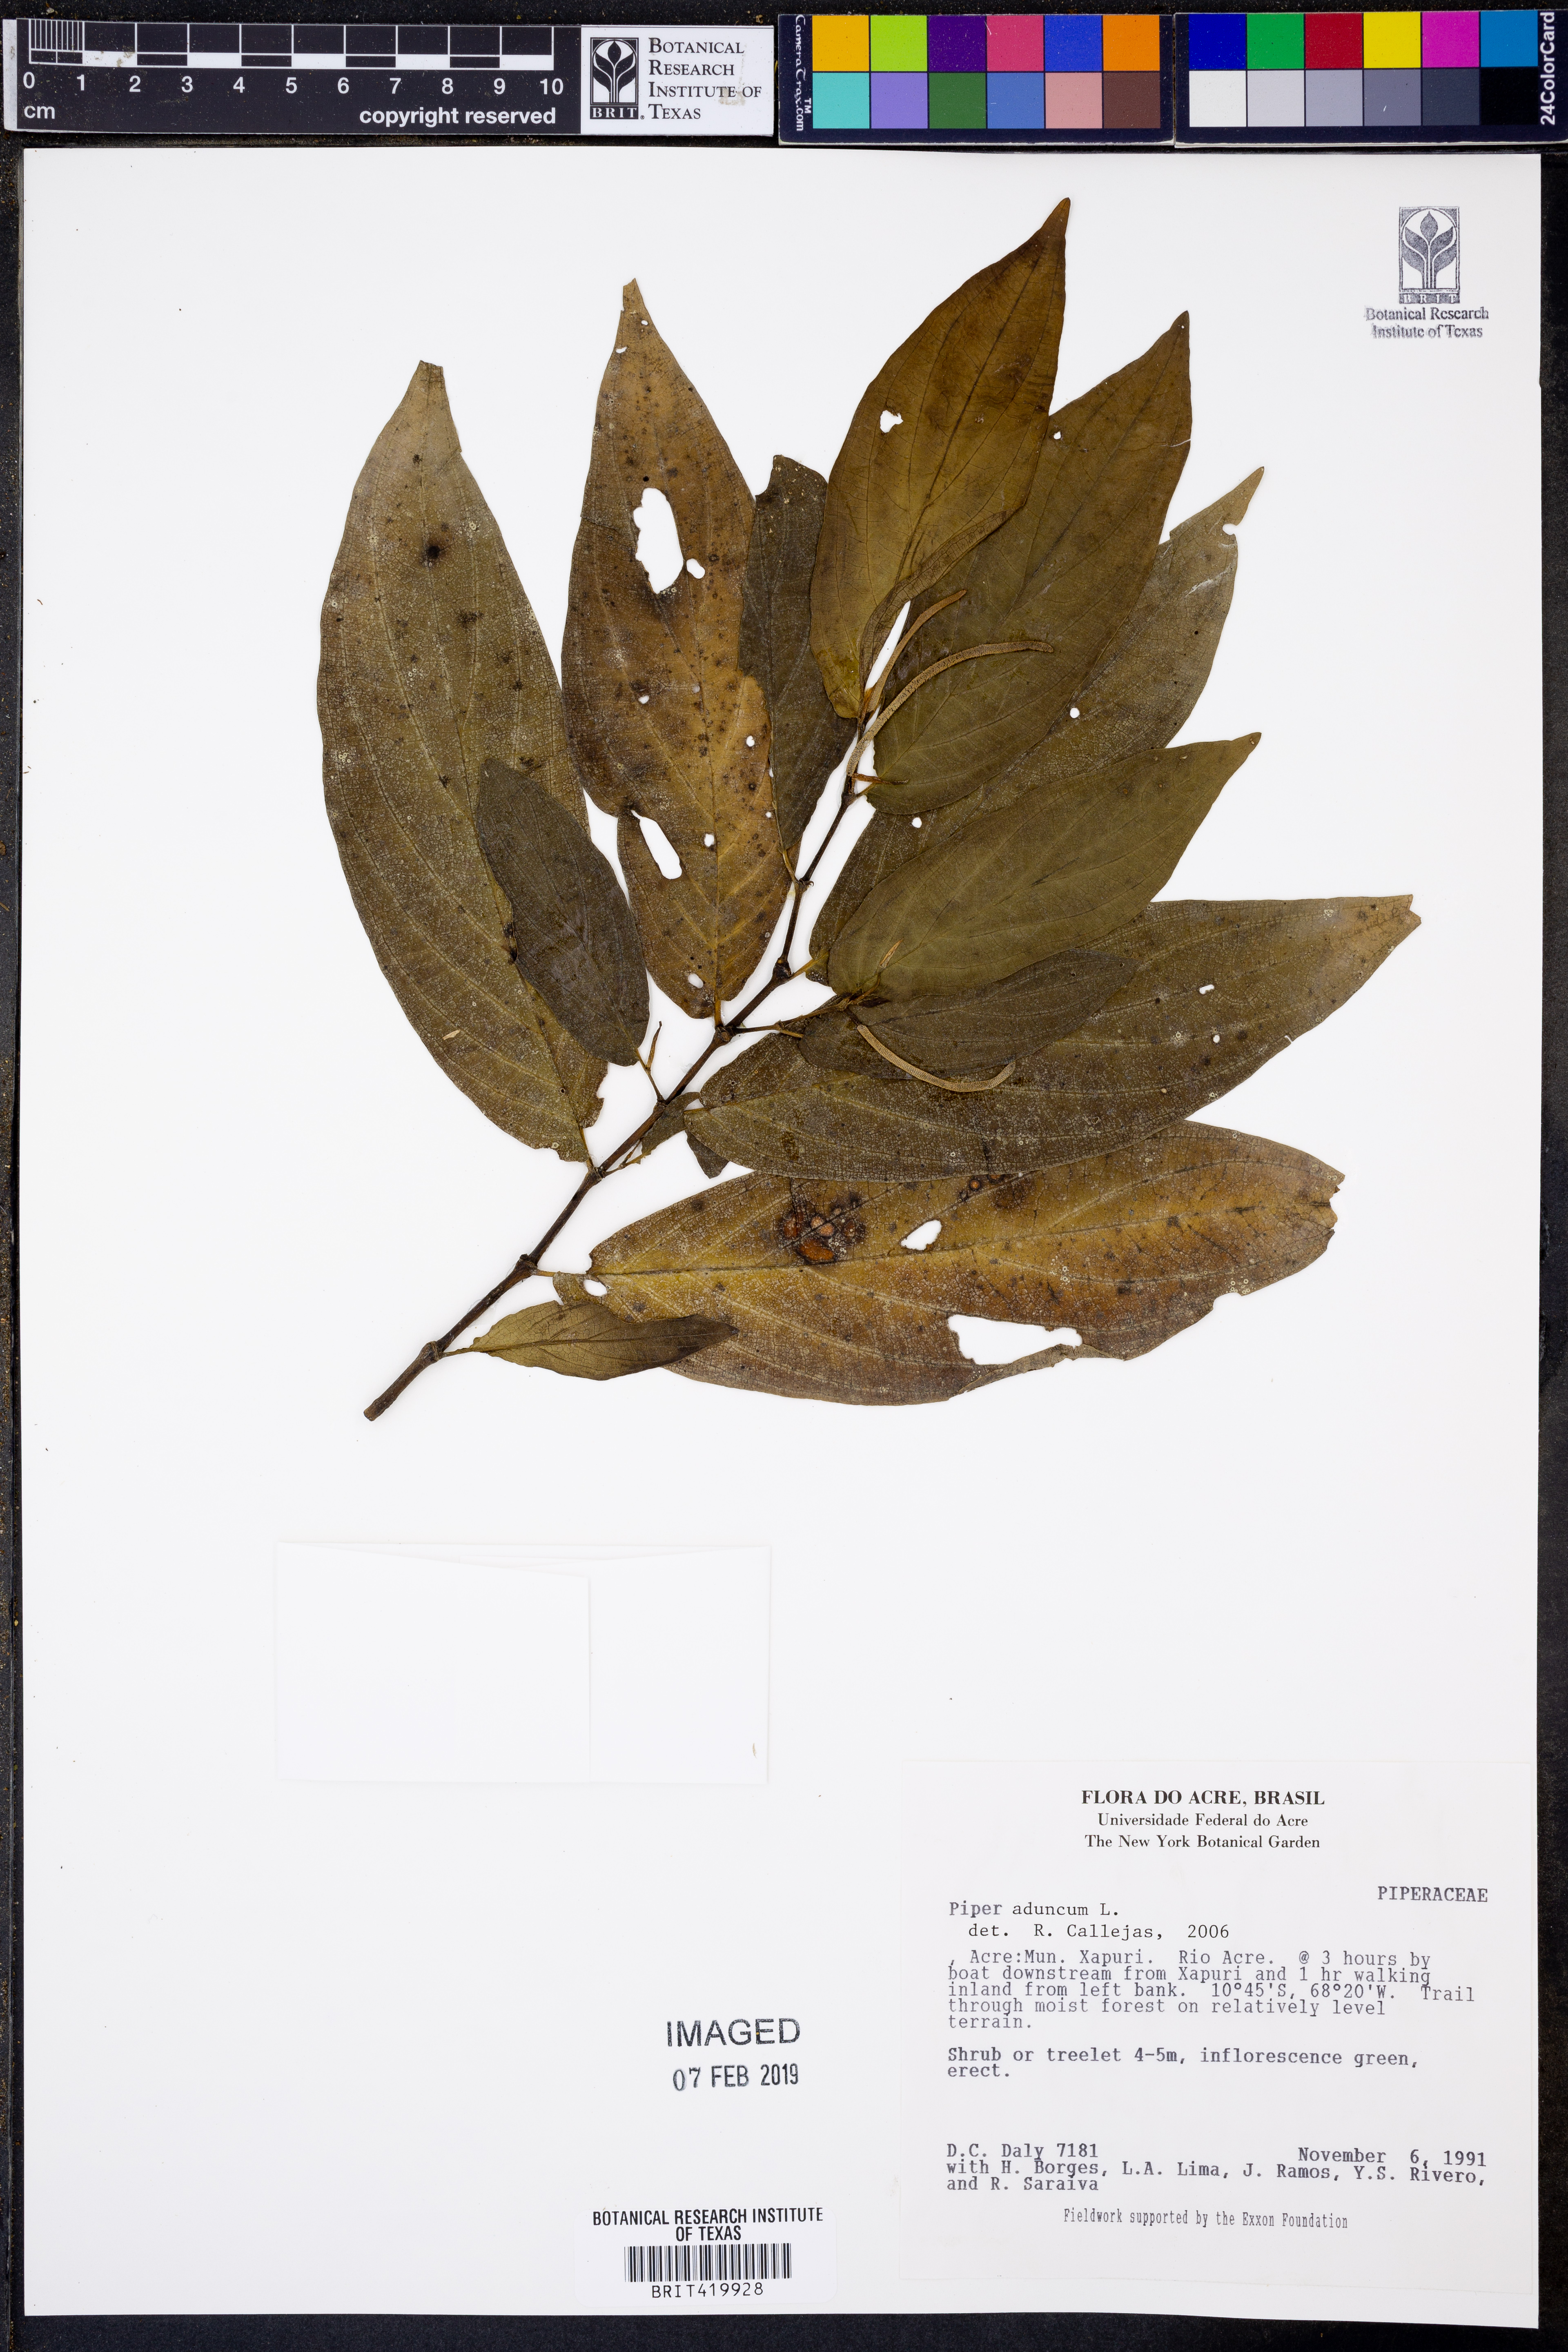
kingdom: Plantae
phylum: Tracheophyta
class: Magnoliopsida
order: Piperales
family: Piperaceae
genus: Piper
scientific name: Piper aduncum
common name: Spiked pepper
